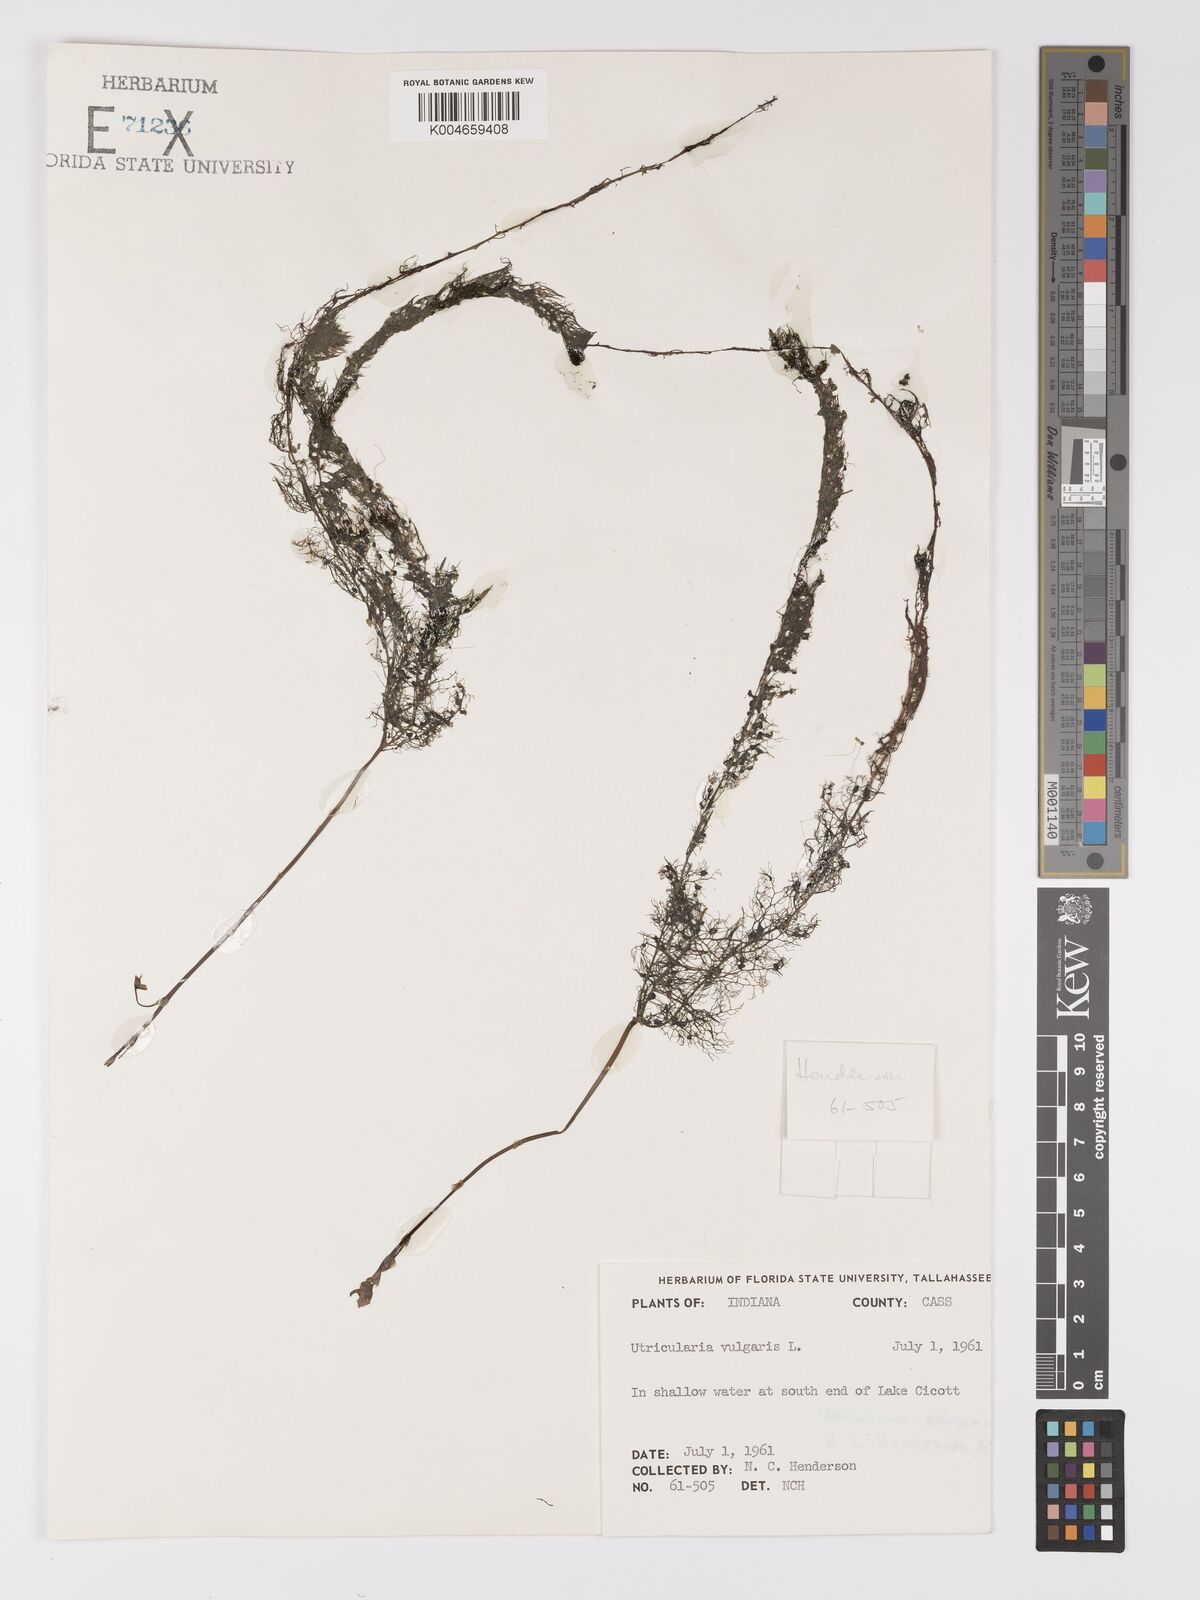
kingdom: Plantae
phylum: Tracheophyta
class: Magnoliopsida
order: Lamiales
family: Lentibulariaceae
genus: Utricularia
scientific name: Utricularia macrorhiza
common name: Common bladderwort
